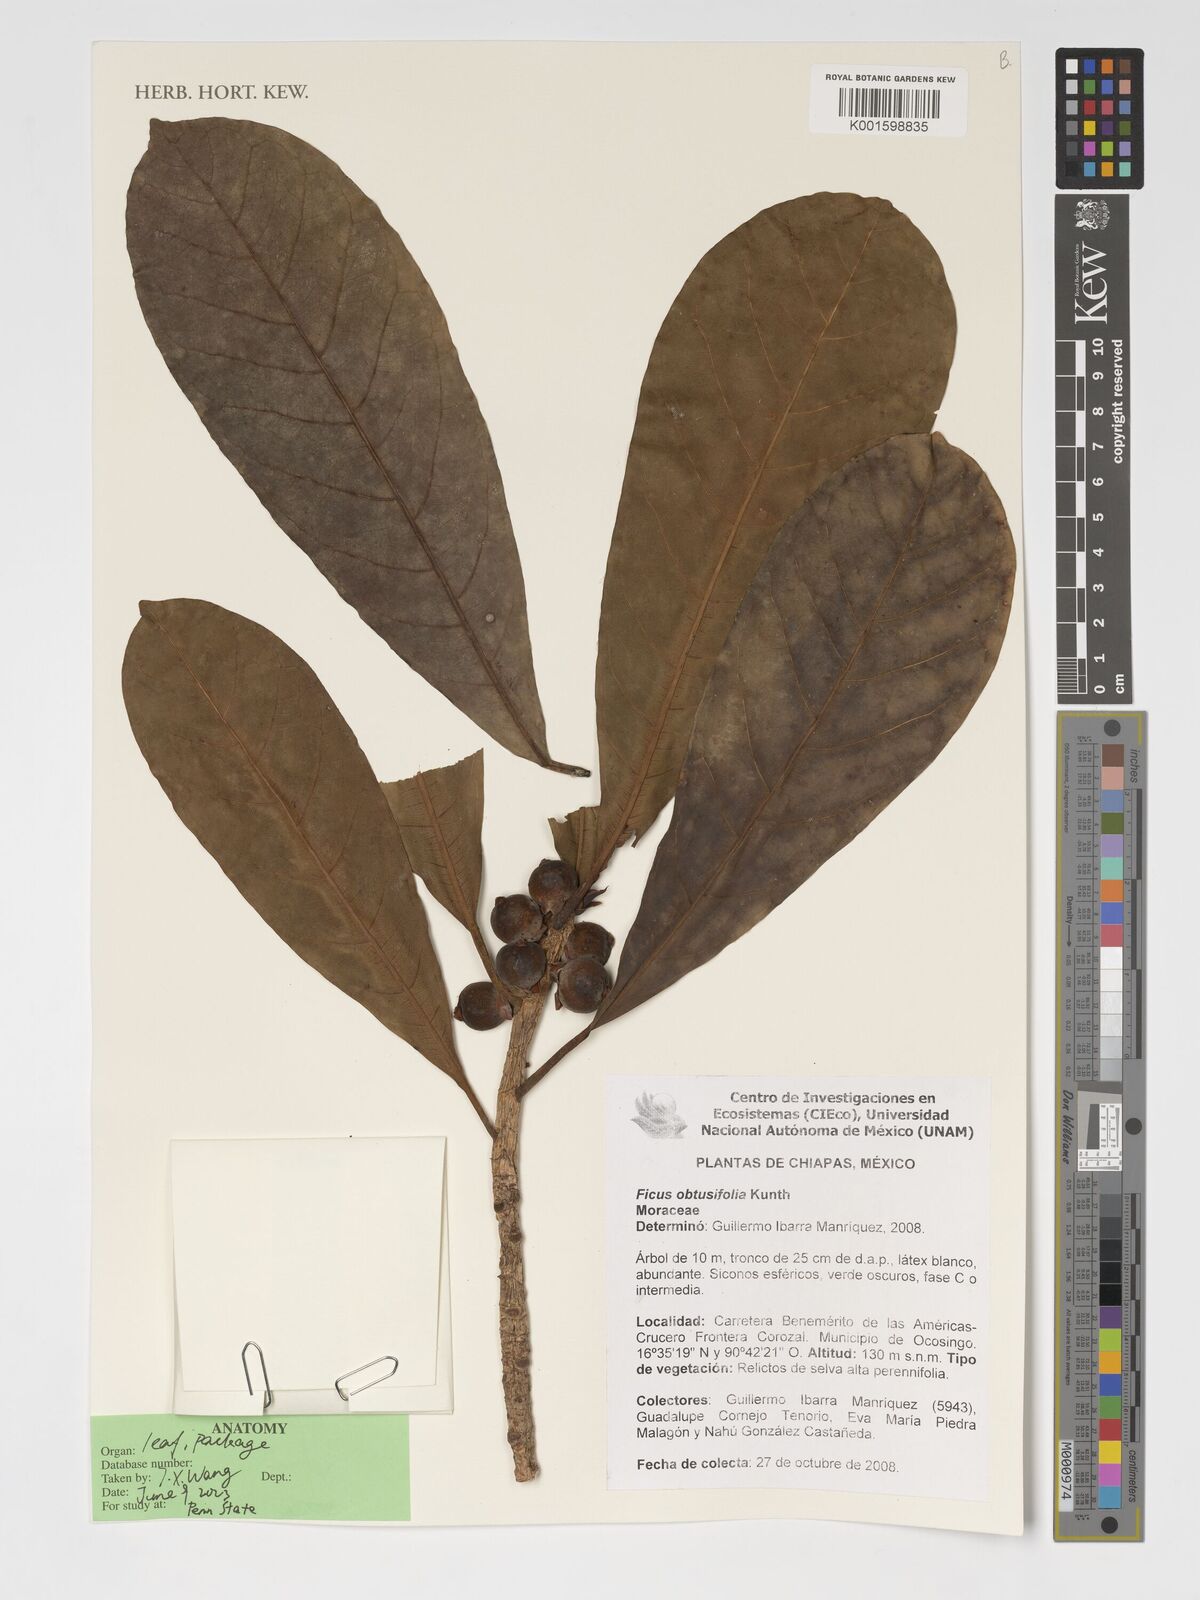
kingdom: Plantae
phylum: Tracheophyta
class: Magnoliopsida
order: Rosales
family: Moraceae
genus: Ficus
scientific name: Ficus obtusifolia
